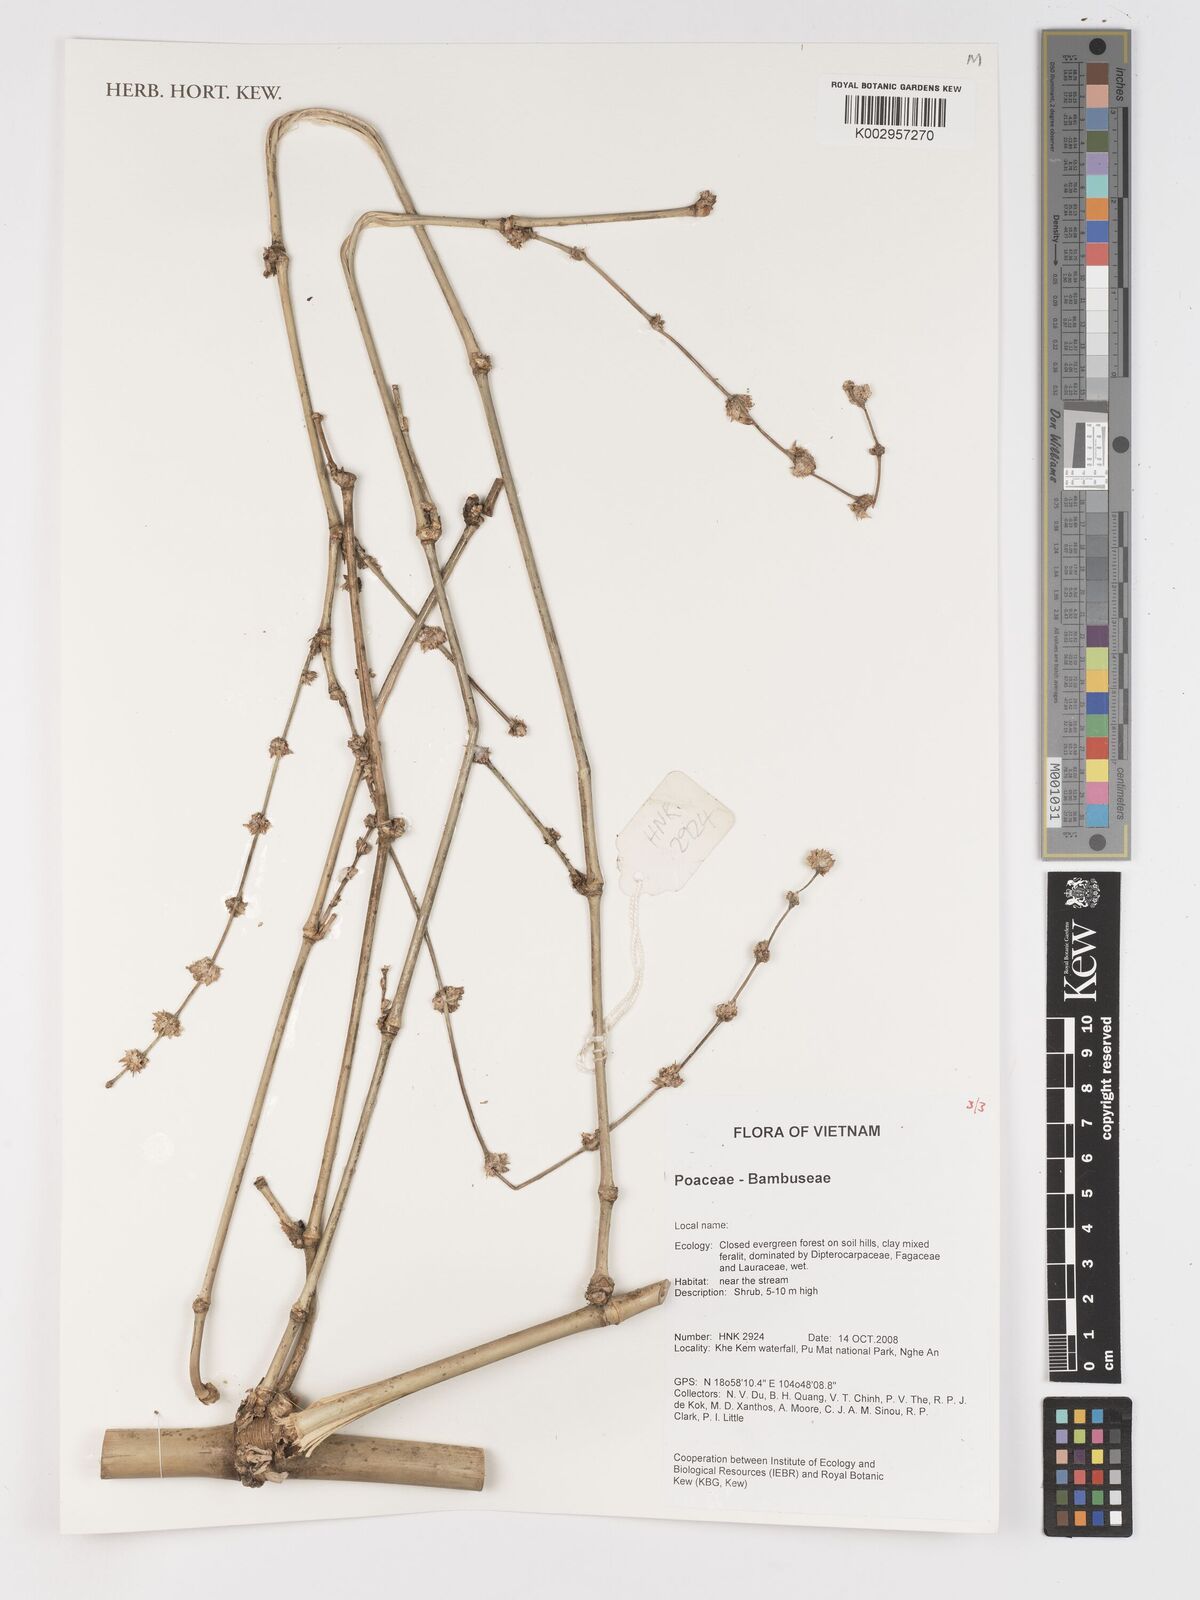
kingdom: Plantae
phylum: Tracheophyta
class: Liliopsida
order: Poales
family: Poaceae
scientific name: Poaceae
